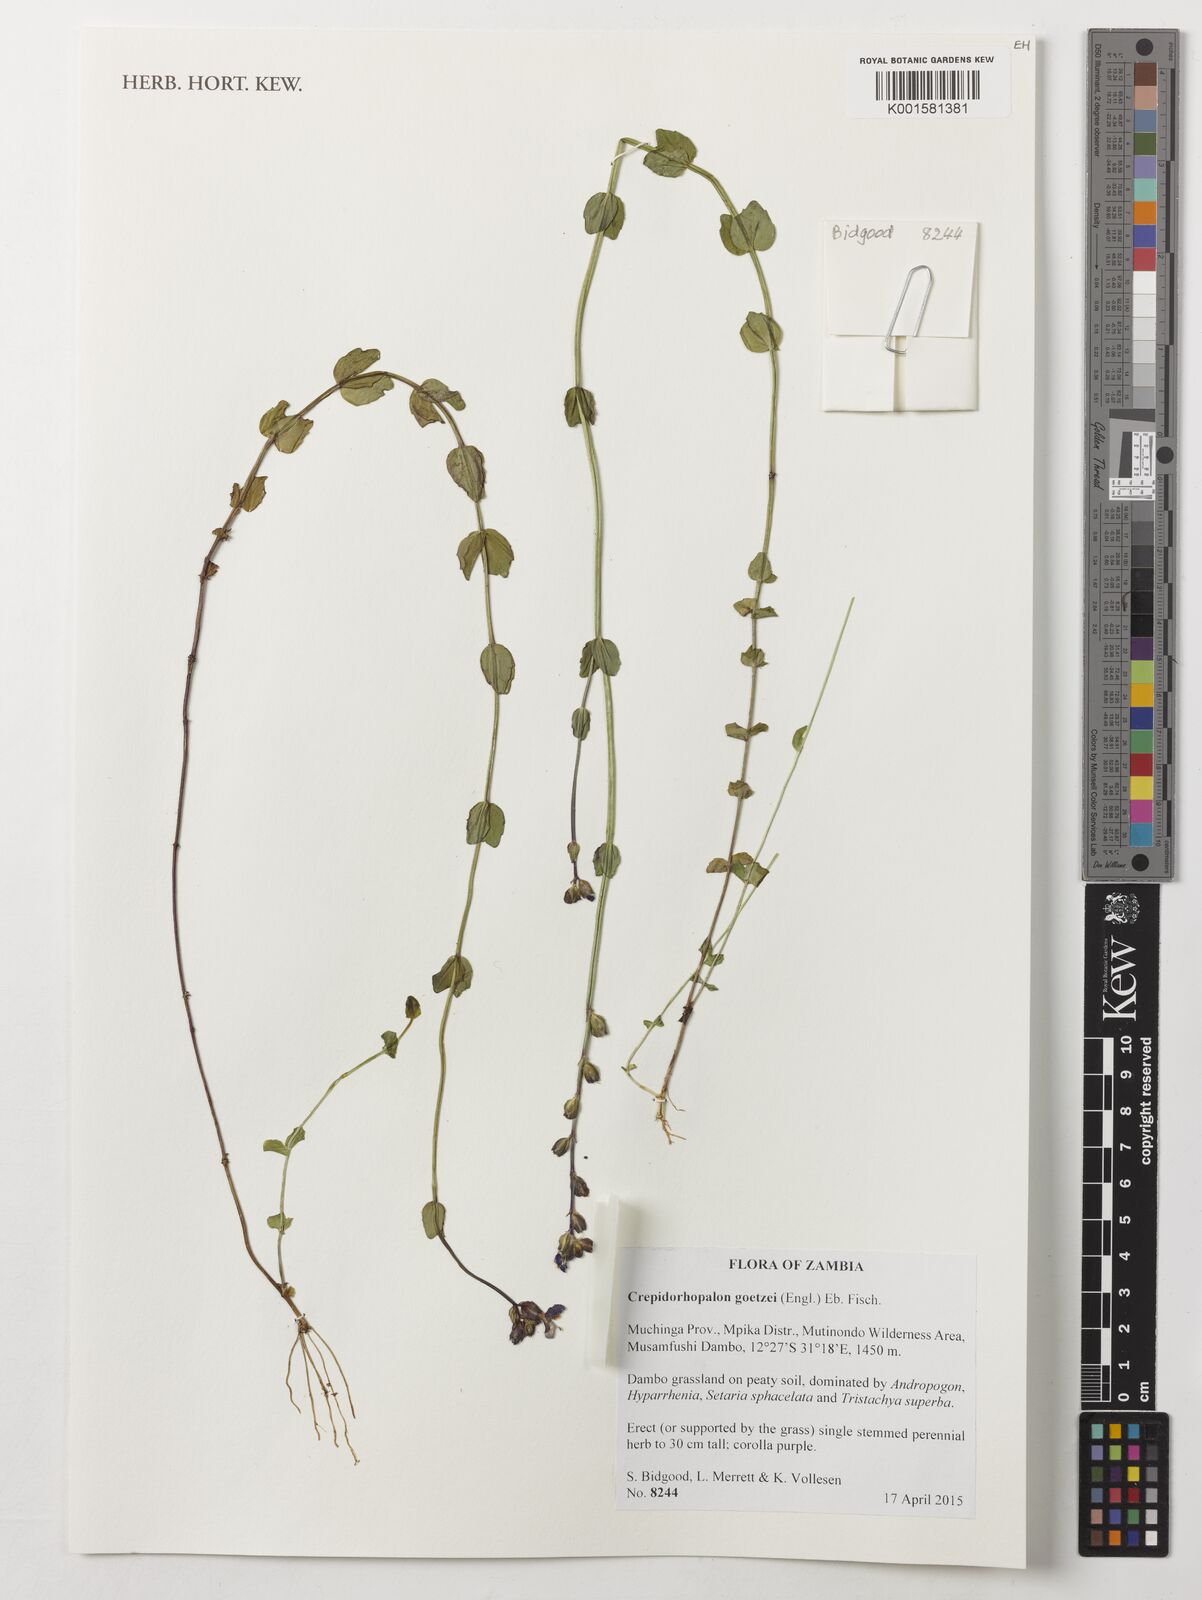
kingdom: Plantae
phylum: Tracheophyta
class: Magnoliopsida
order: Lamiales
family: Linderniaceae
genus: Crepidorhopalon
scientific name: Crepidorhopalon goetzei
